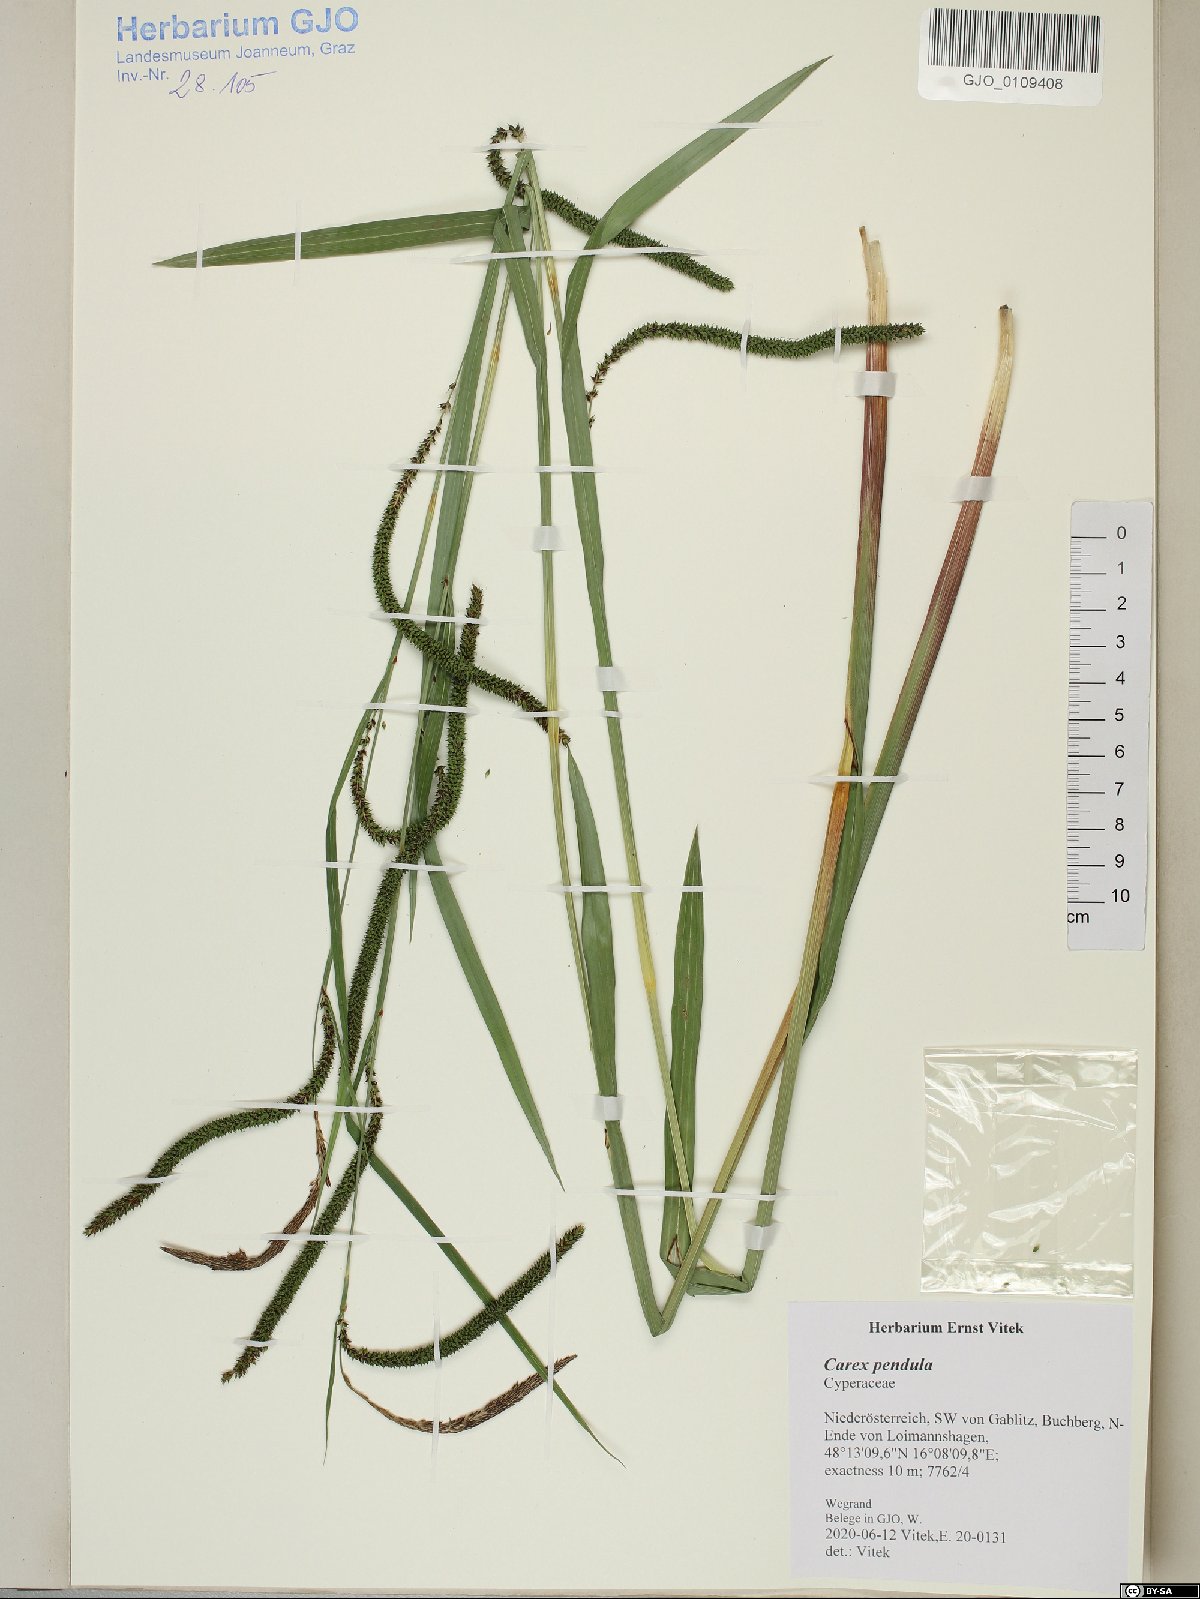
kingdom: Plantae
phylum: Tracheophyta
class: Liliopsida
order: Poales
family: Cyperaceae
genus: Carex
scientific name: Carex pendula
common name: Pendulous sedge
